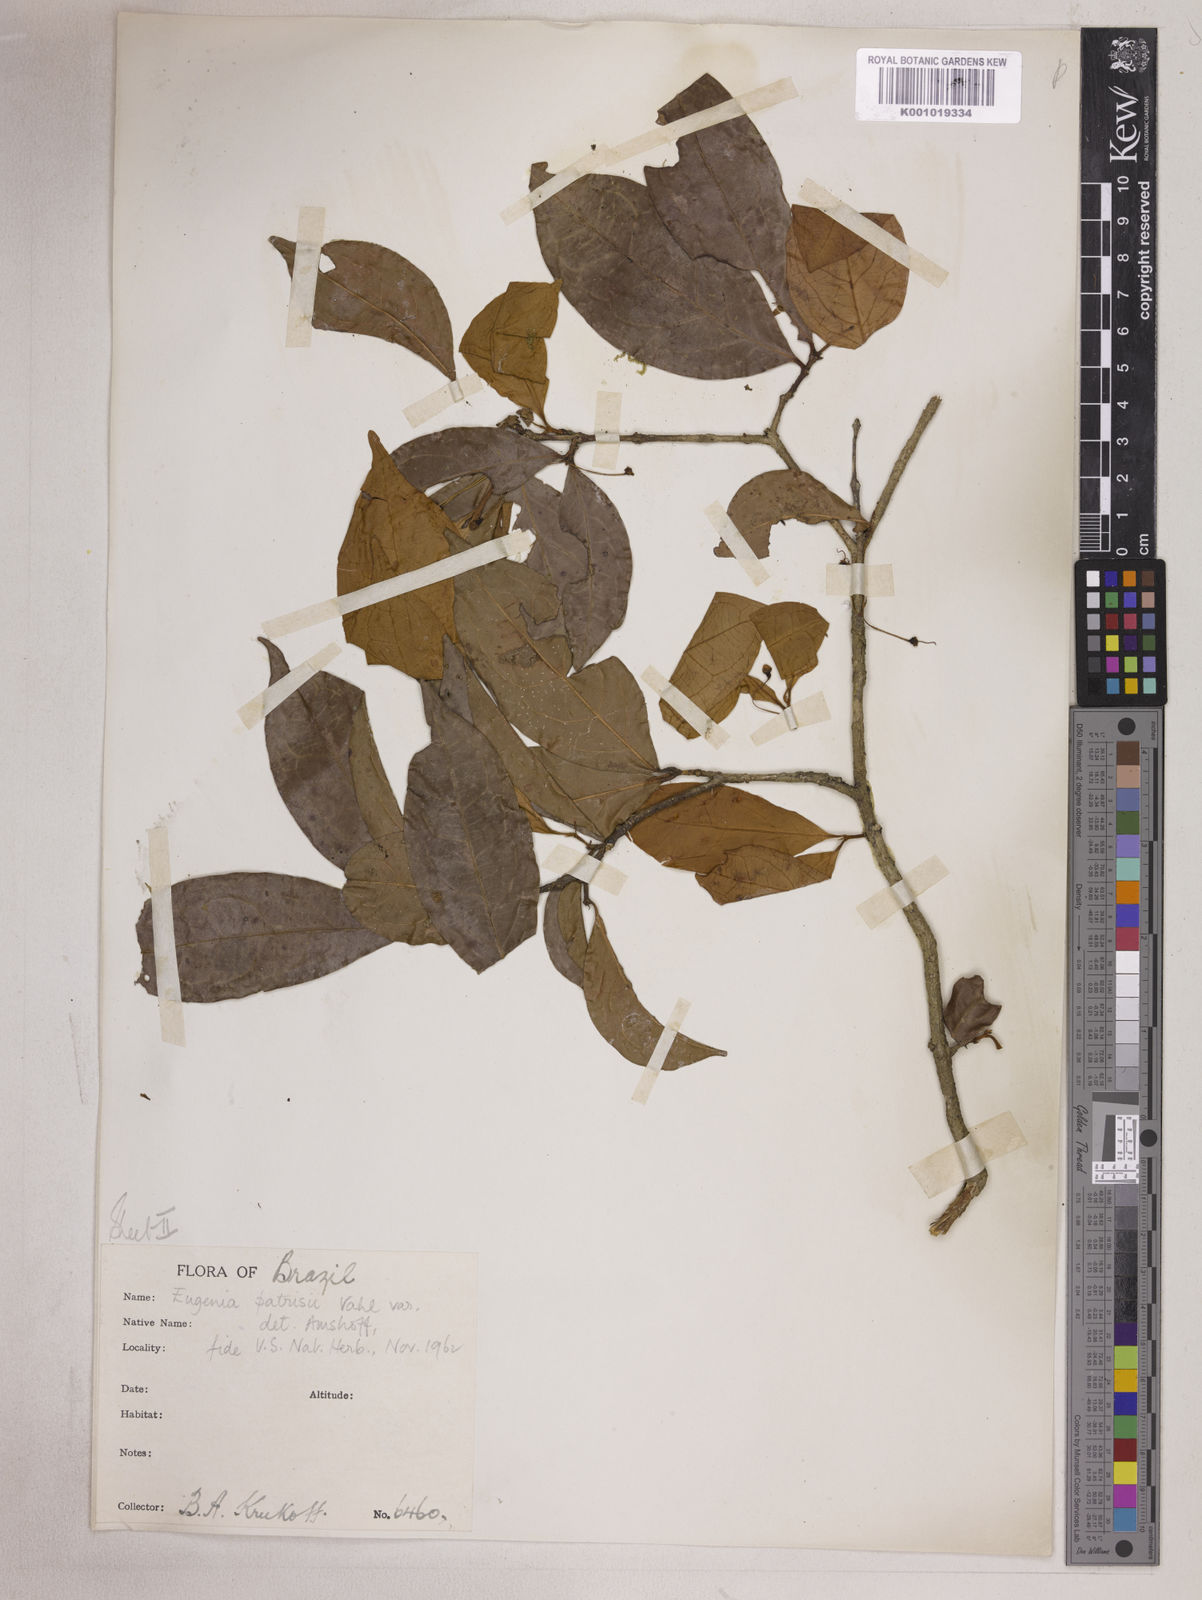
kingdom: Plantae
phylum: Tracheophyta
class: Magnoliopsida
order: Myrtales
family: Myrtaceae
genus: Eugenia
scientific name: Eugenia patrisii
